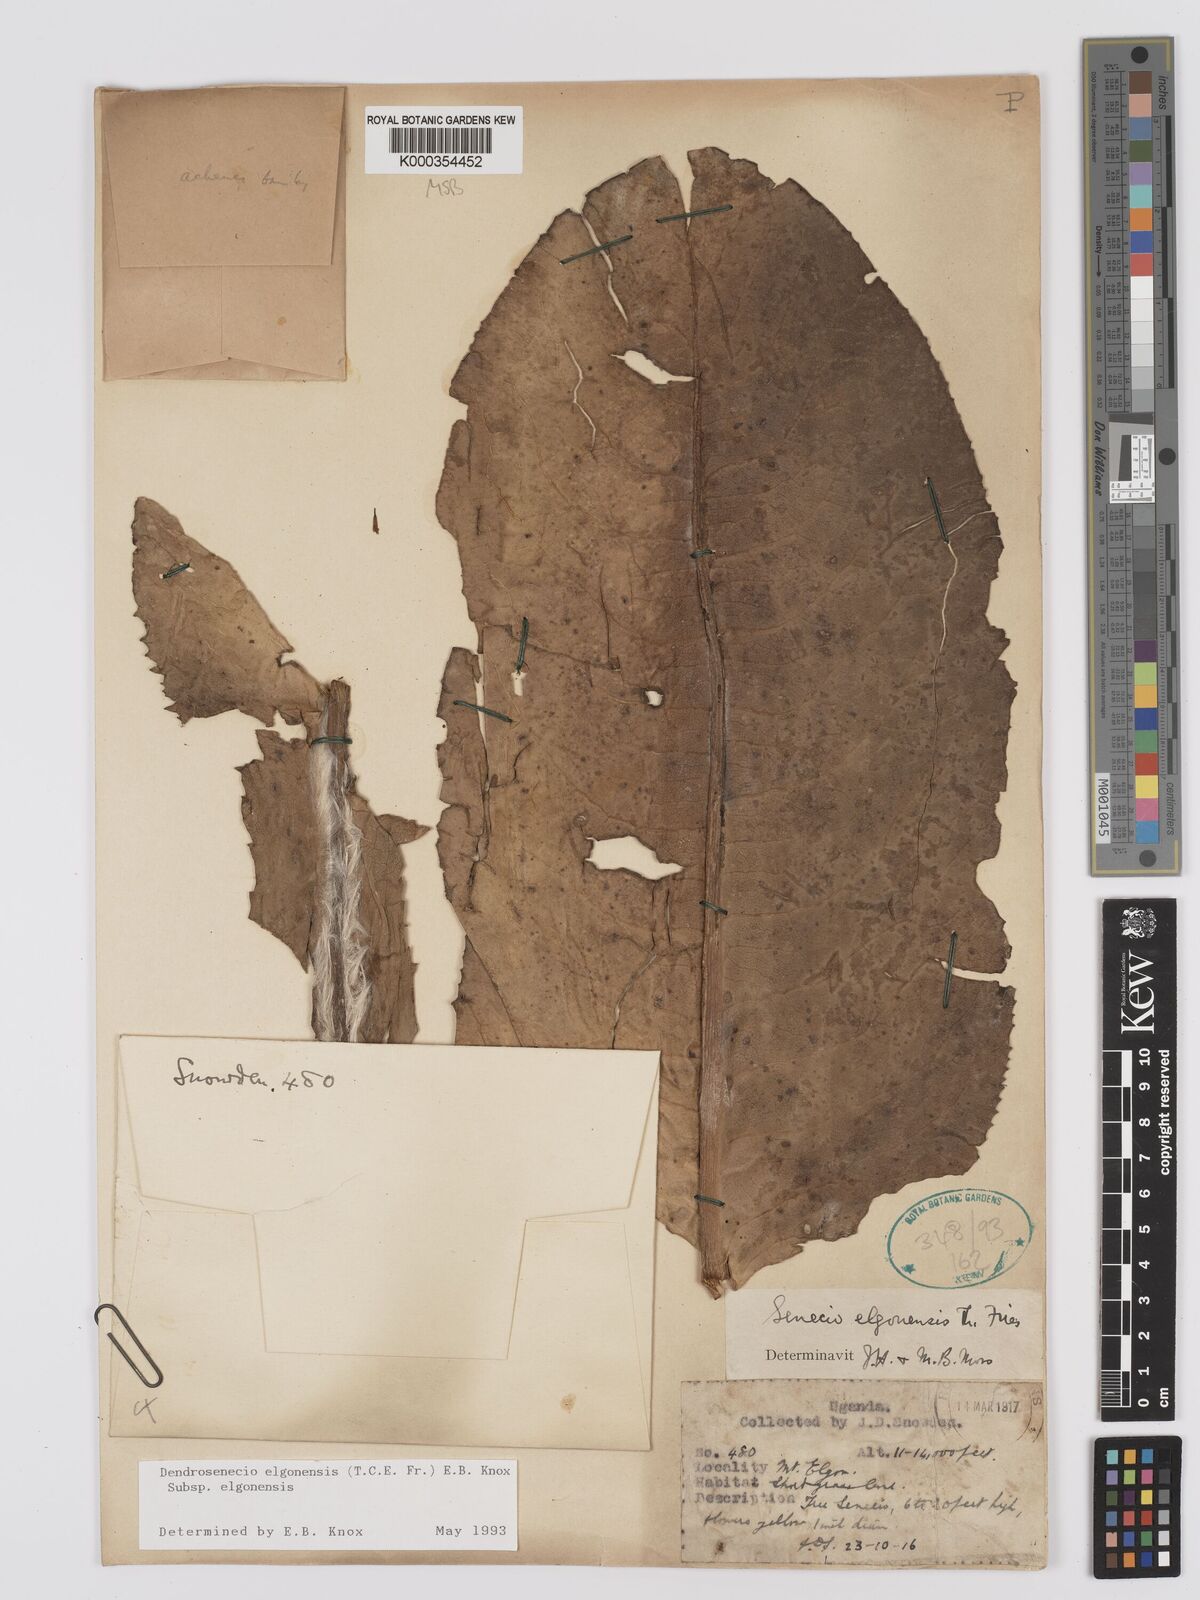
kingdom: Plantae
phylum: Tracheophyta
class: Magnoliopsida
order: Asterales
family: Asteraceae
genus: Dendrosenecio
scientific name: Dendrosenecio elgonensis
